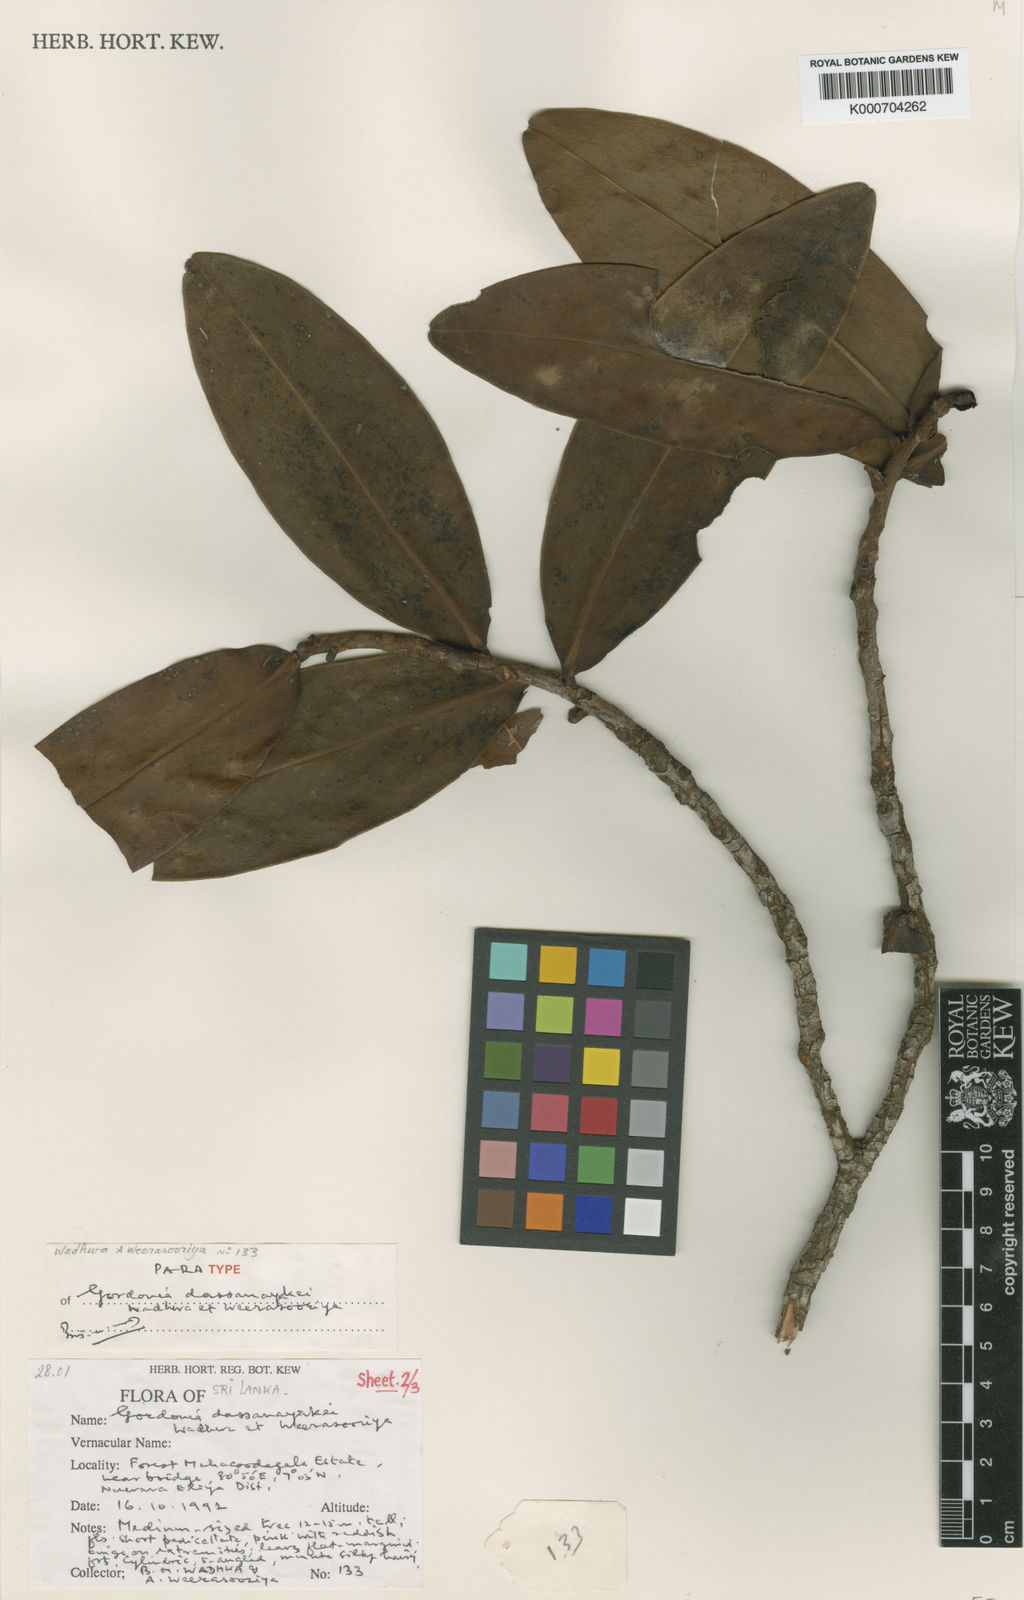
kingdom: Plantae
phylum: Tracheophyta
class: Magnoliopsida
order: Ericales
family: Theaceae
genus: Polyspora
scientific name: Polyspora dassanayakei
